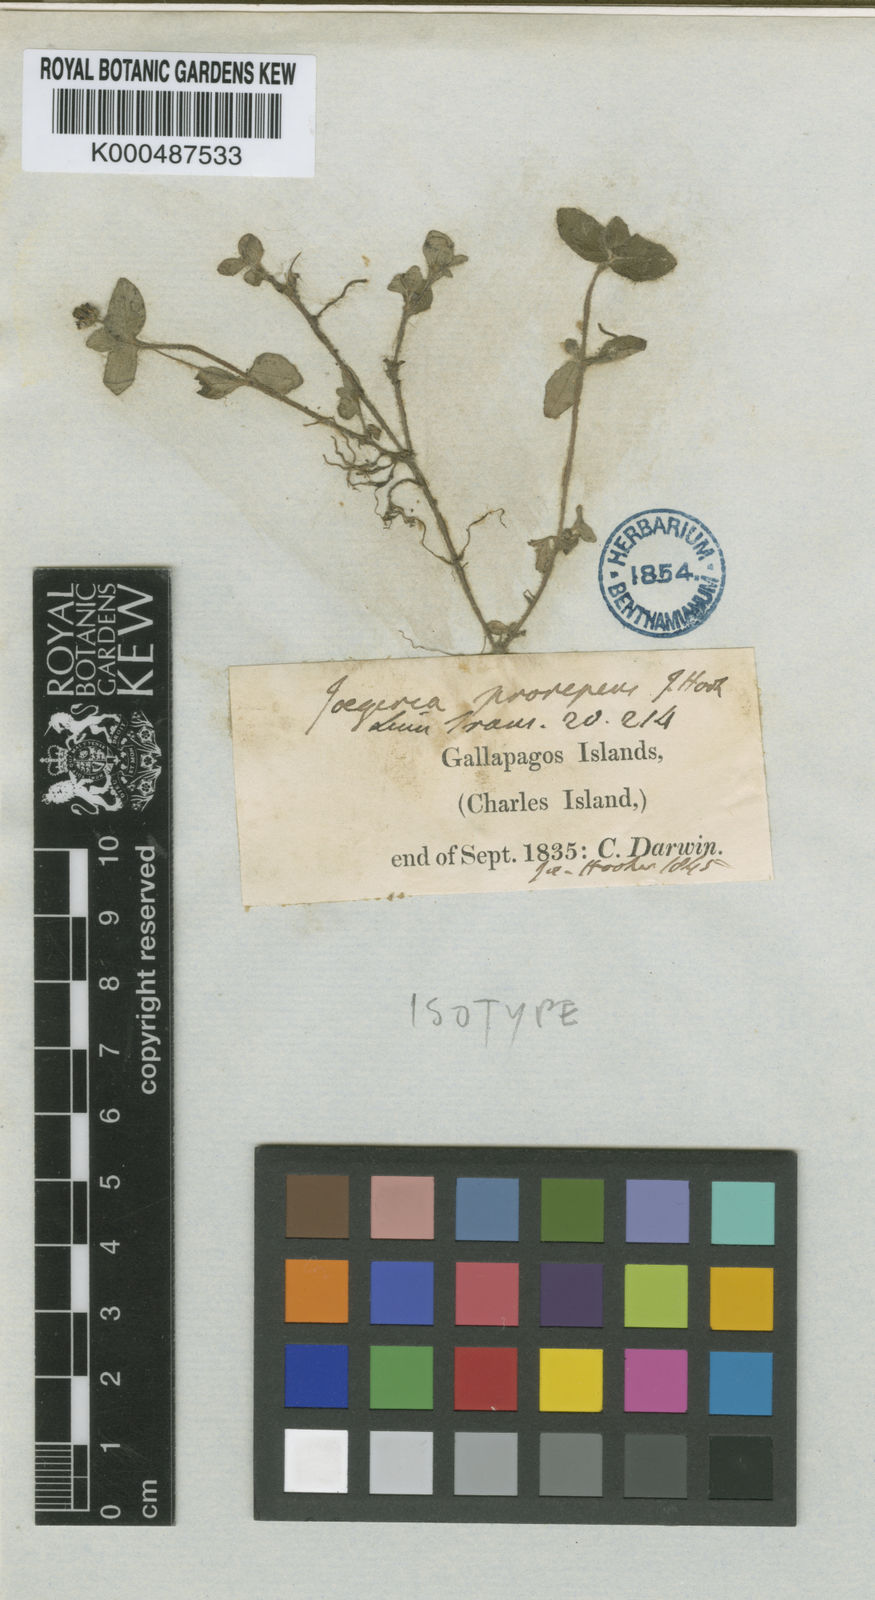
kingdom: Plantae
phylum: Tracheophyta
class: Magnoliopsida
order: Asterales
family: Asteraceae
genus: Jaegeria
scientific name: Jaegeria gracilis
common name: Galapagos jaegeria
